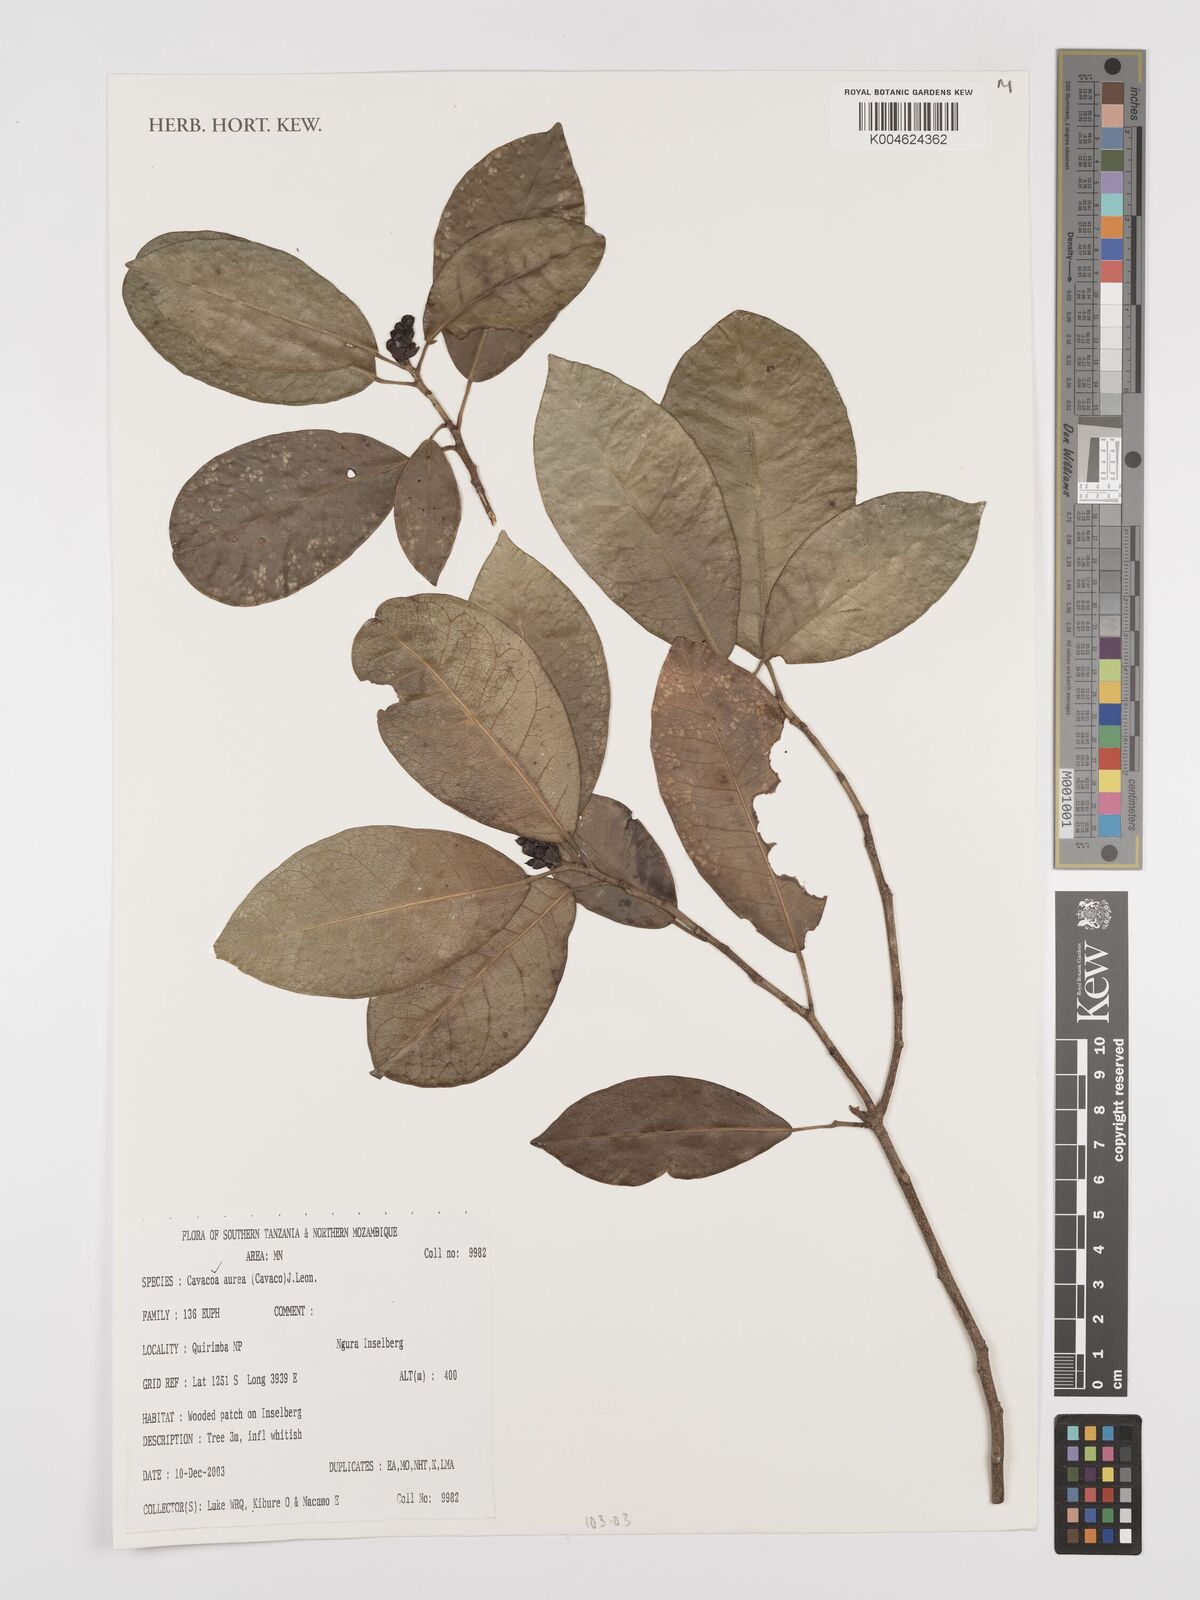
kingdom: Plantae
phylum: Tracheophyta
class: Magnoliopsida
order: Malpighiales
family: Euphorbiaceae
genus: Cavacoa
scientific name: Cavacoa aurea
